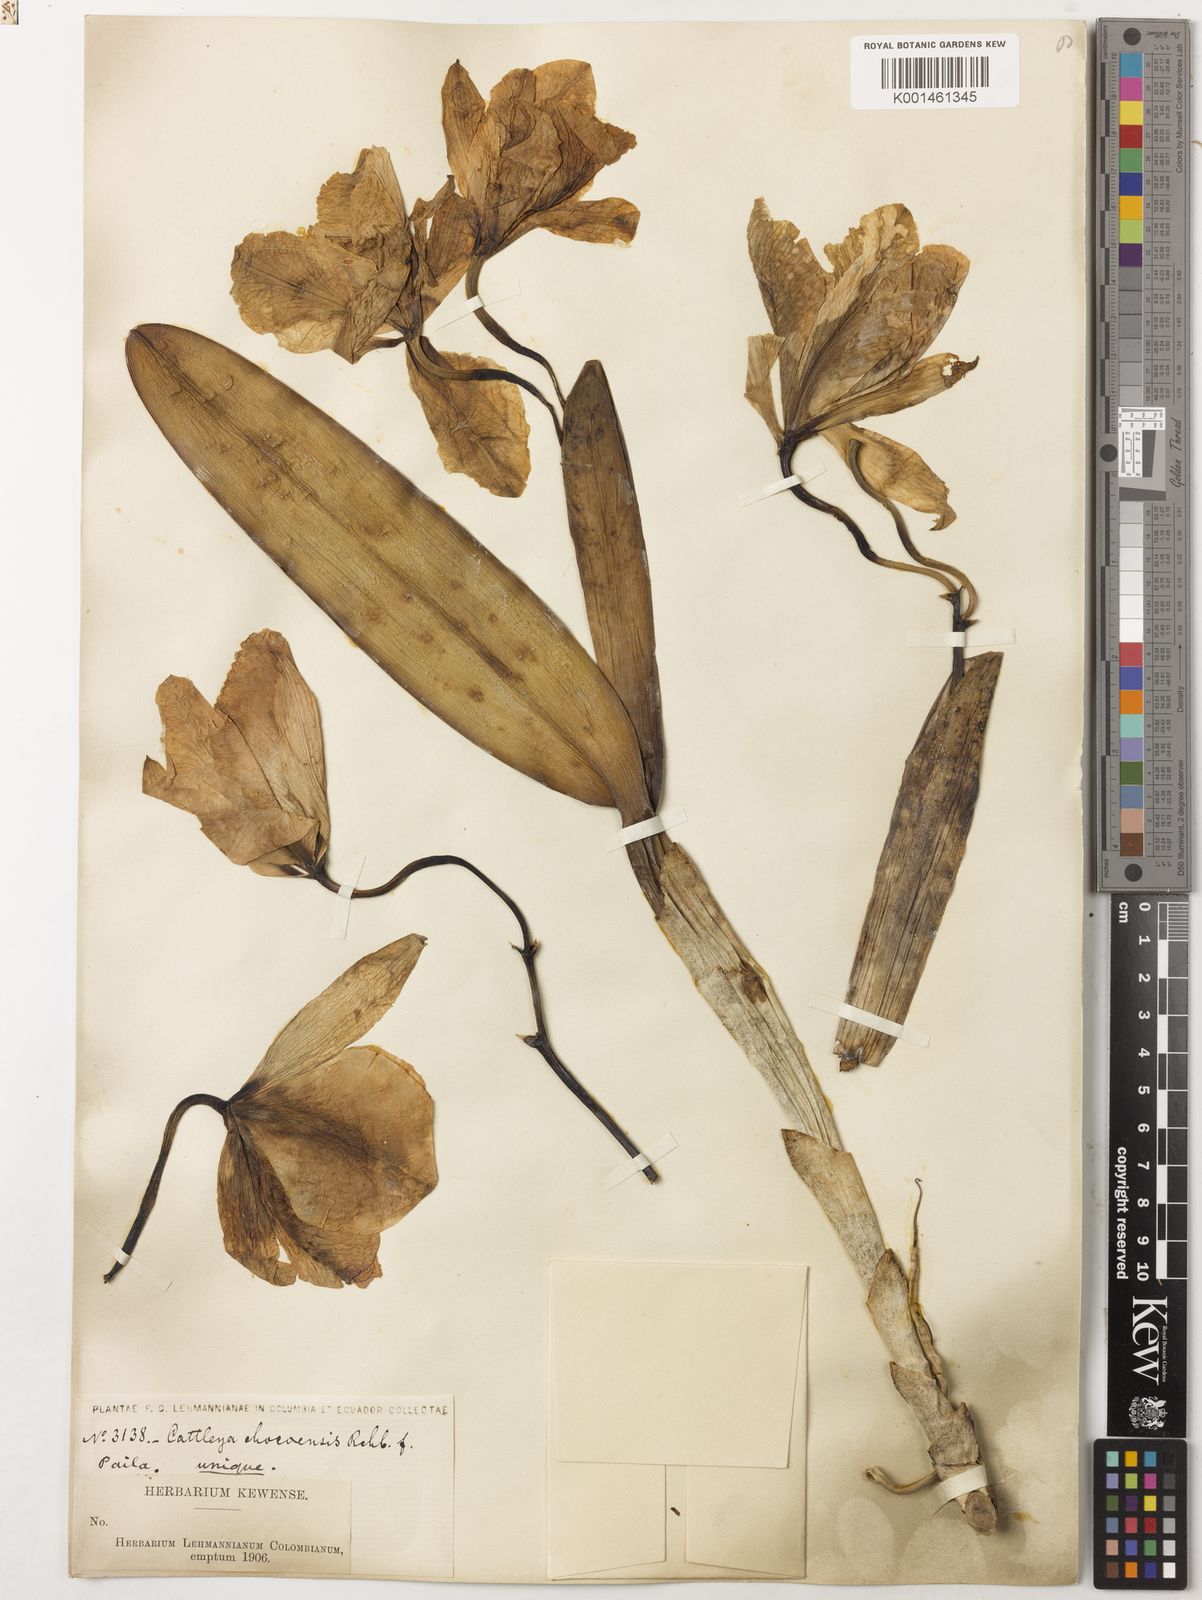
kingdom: Plantae
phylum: Tracheophyta
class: Liliopsida
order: Asparagales
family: Orchidaceae
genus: Cattleya
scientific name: Cattleya
